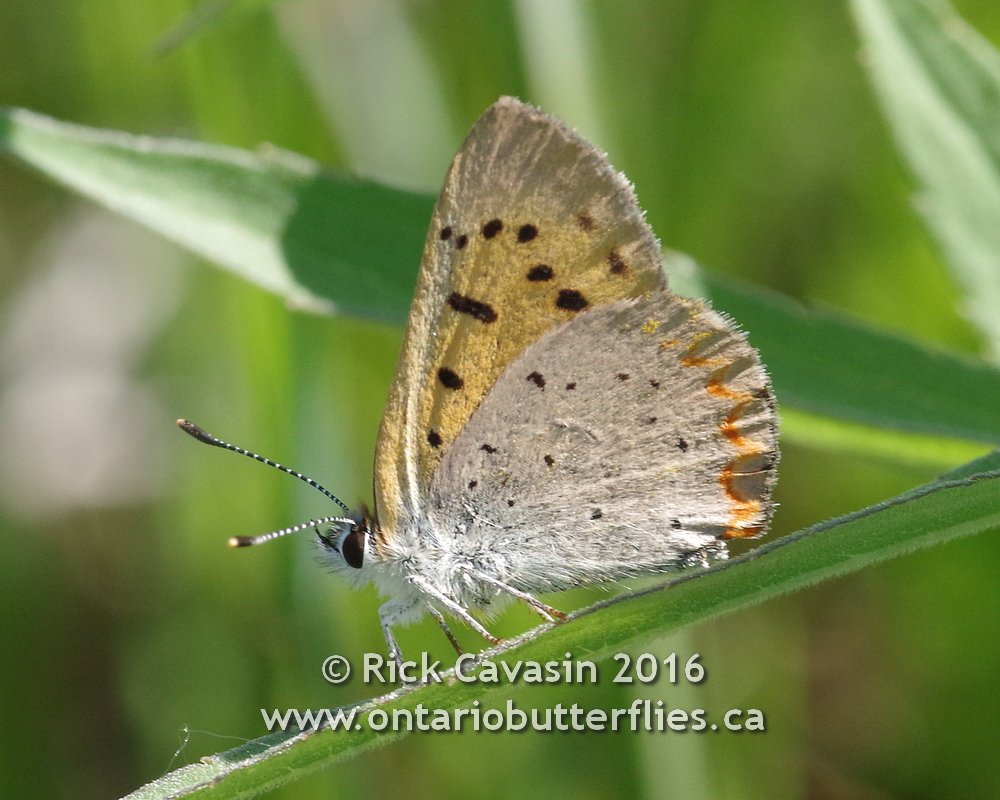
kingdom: Animalia
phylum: Arthropoda
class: Insecta
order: Lepidoptera
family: Sesiidae
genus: Sesia
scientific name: Sesia Lycaena helloides
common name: Purplish Copper
